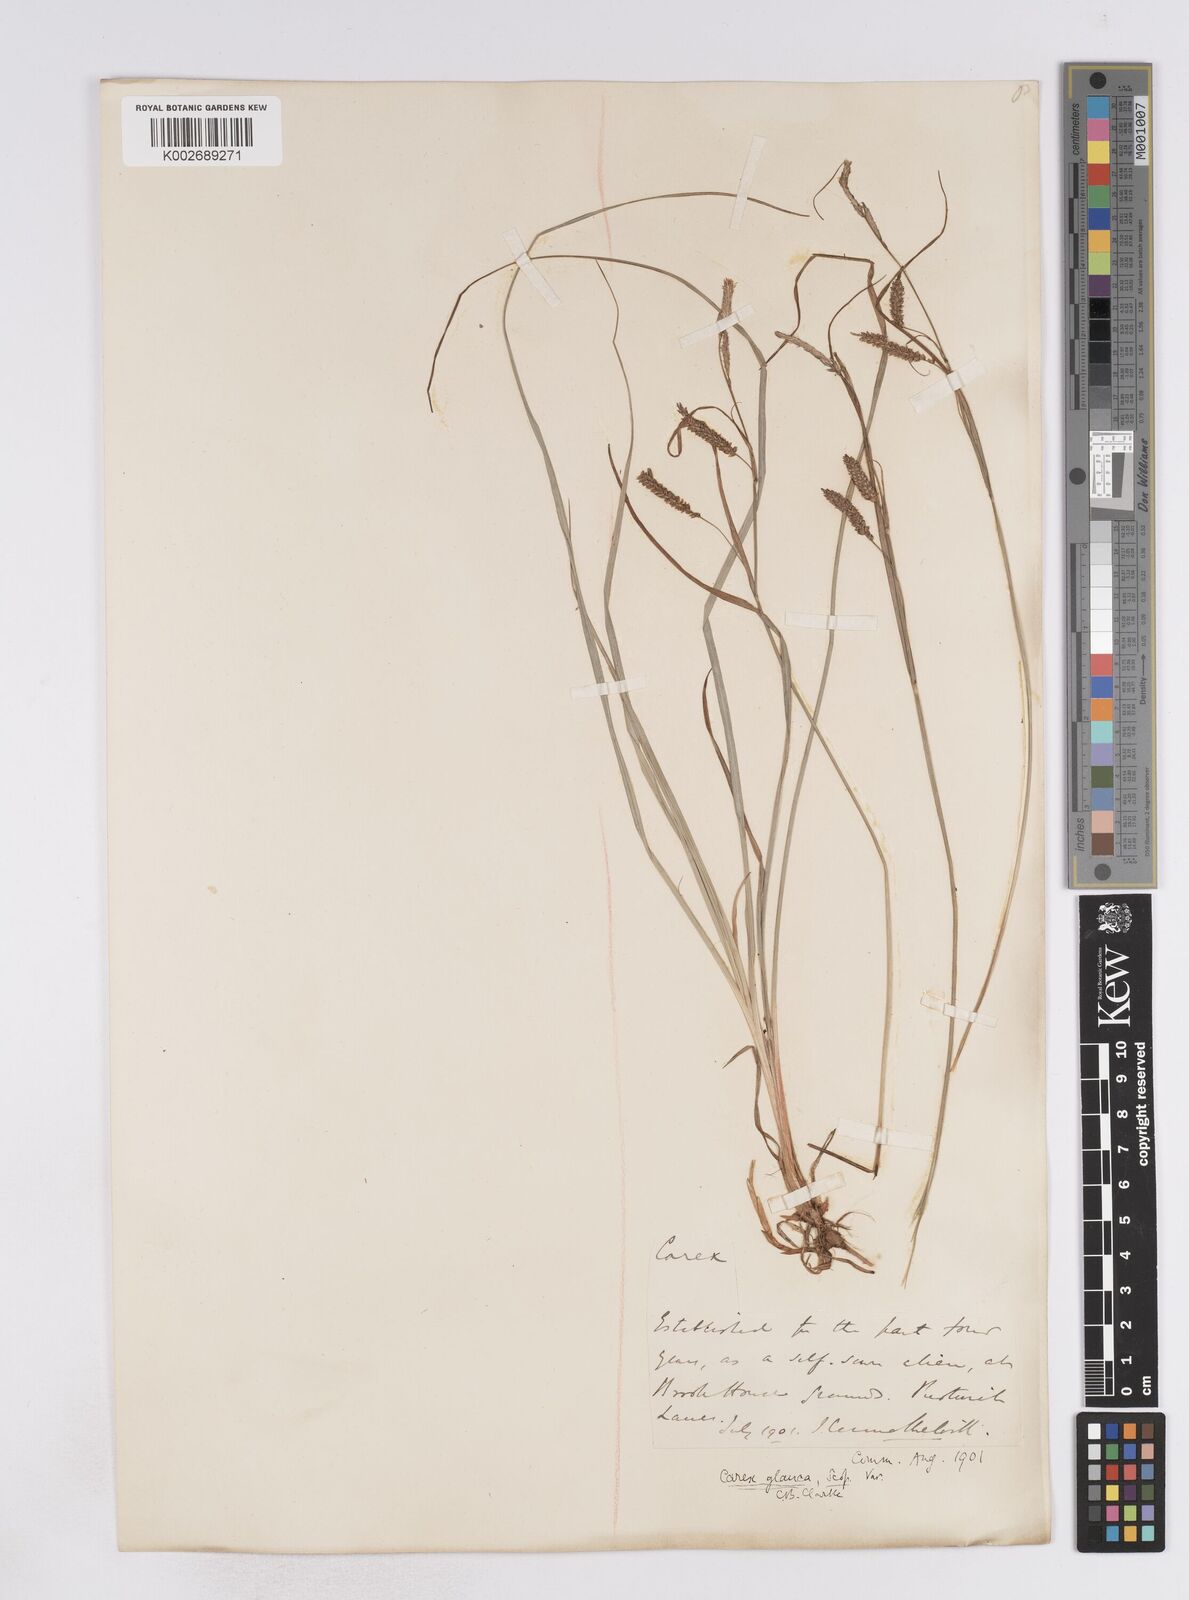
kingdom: Plantae
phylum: Tracheophyta
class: Liliopsida
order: Poales
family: Cyperaceae
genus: Carex
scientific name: Carex flacca
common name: Glaucous sedge
